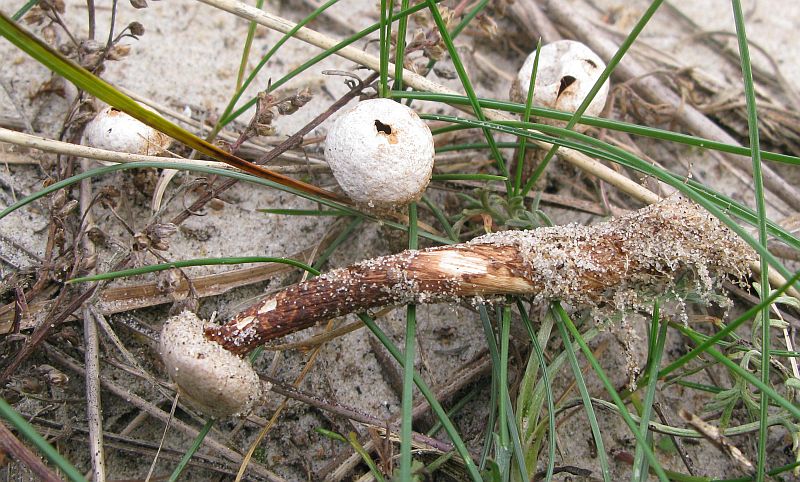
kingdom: Fungi
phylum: Basidiomycota
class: Agaricomycetes
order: Agaricales
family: Agaricaceae
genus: Tulostoma
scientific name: Tulostoma fimbriatum
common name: frynset stilkbovist
